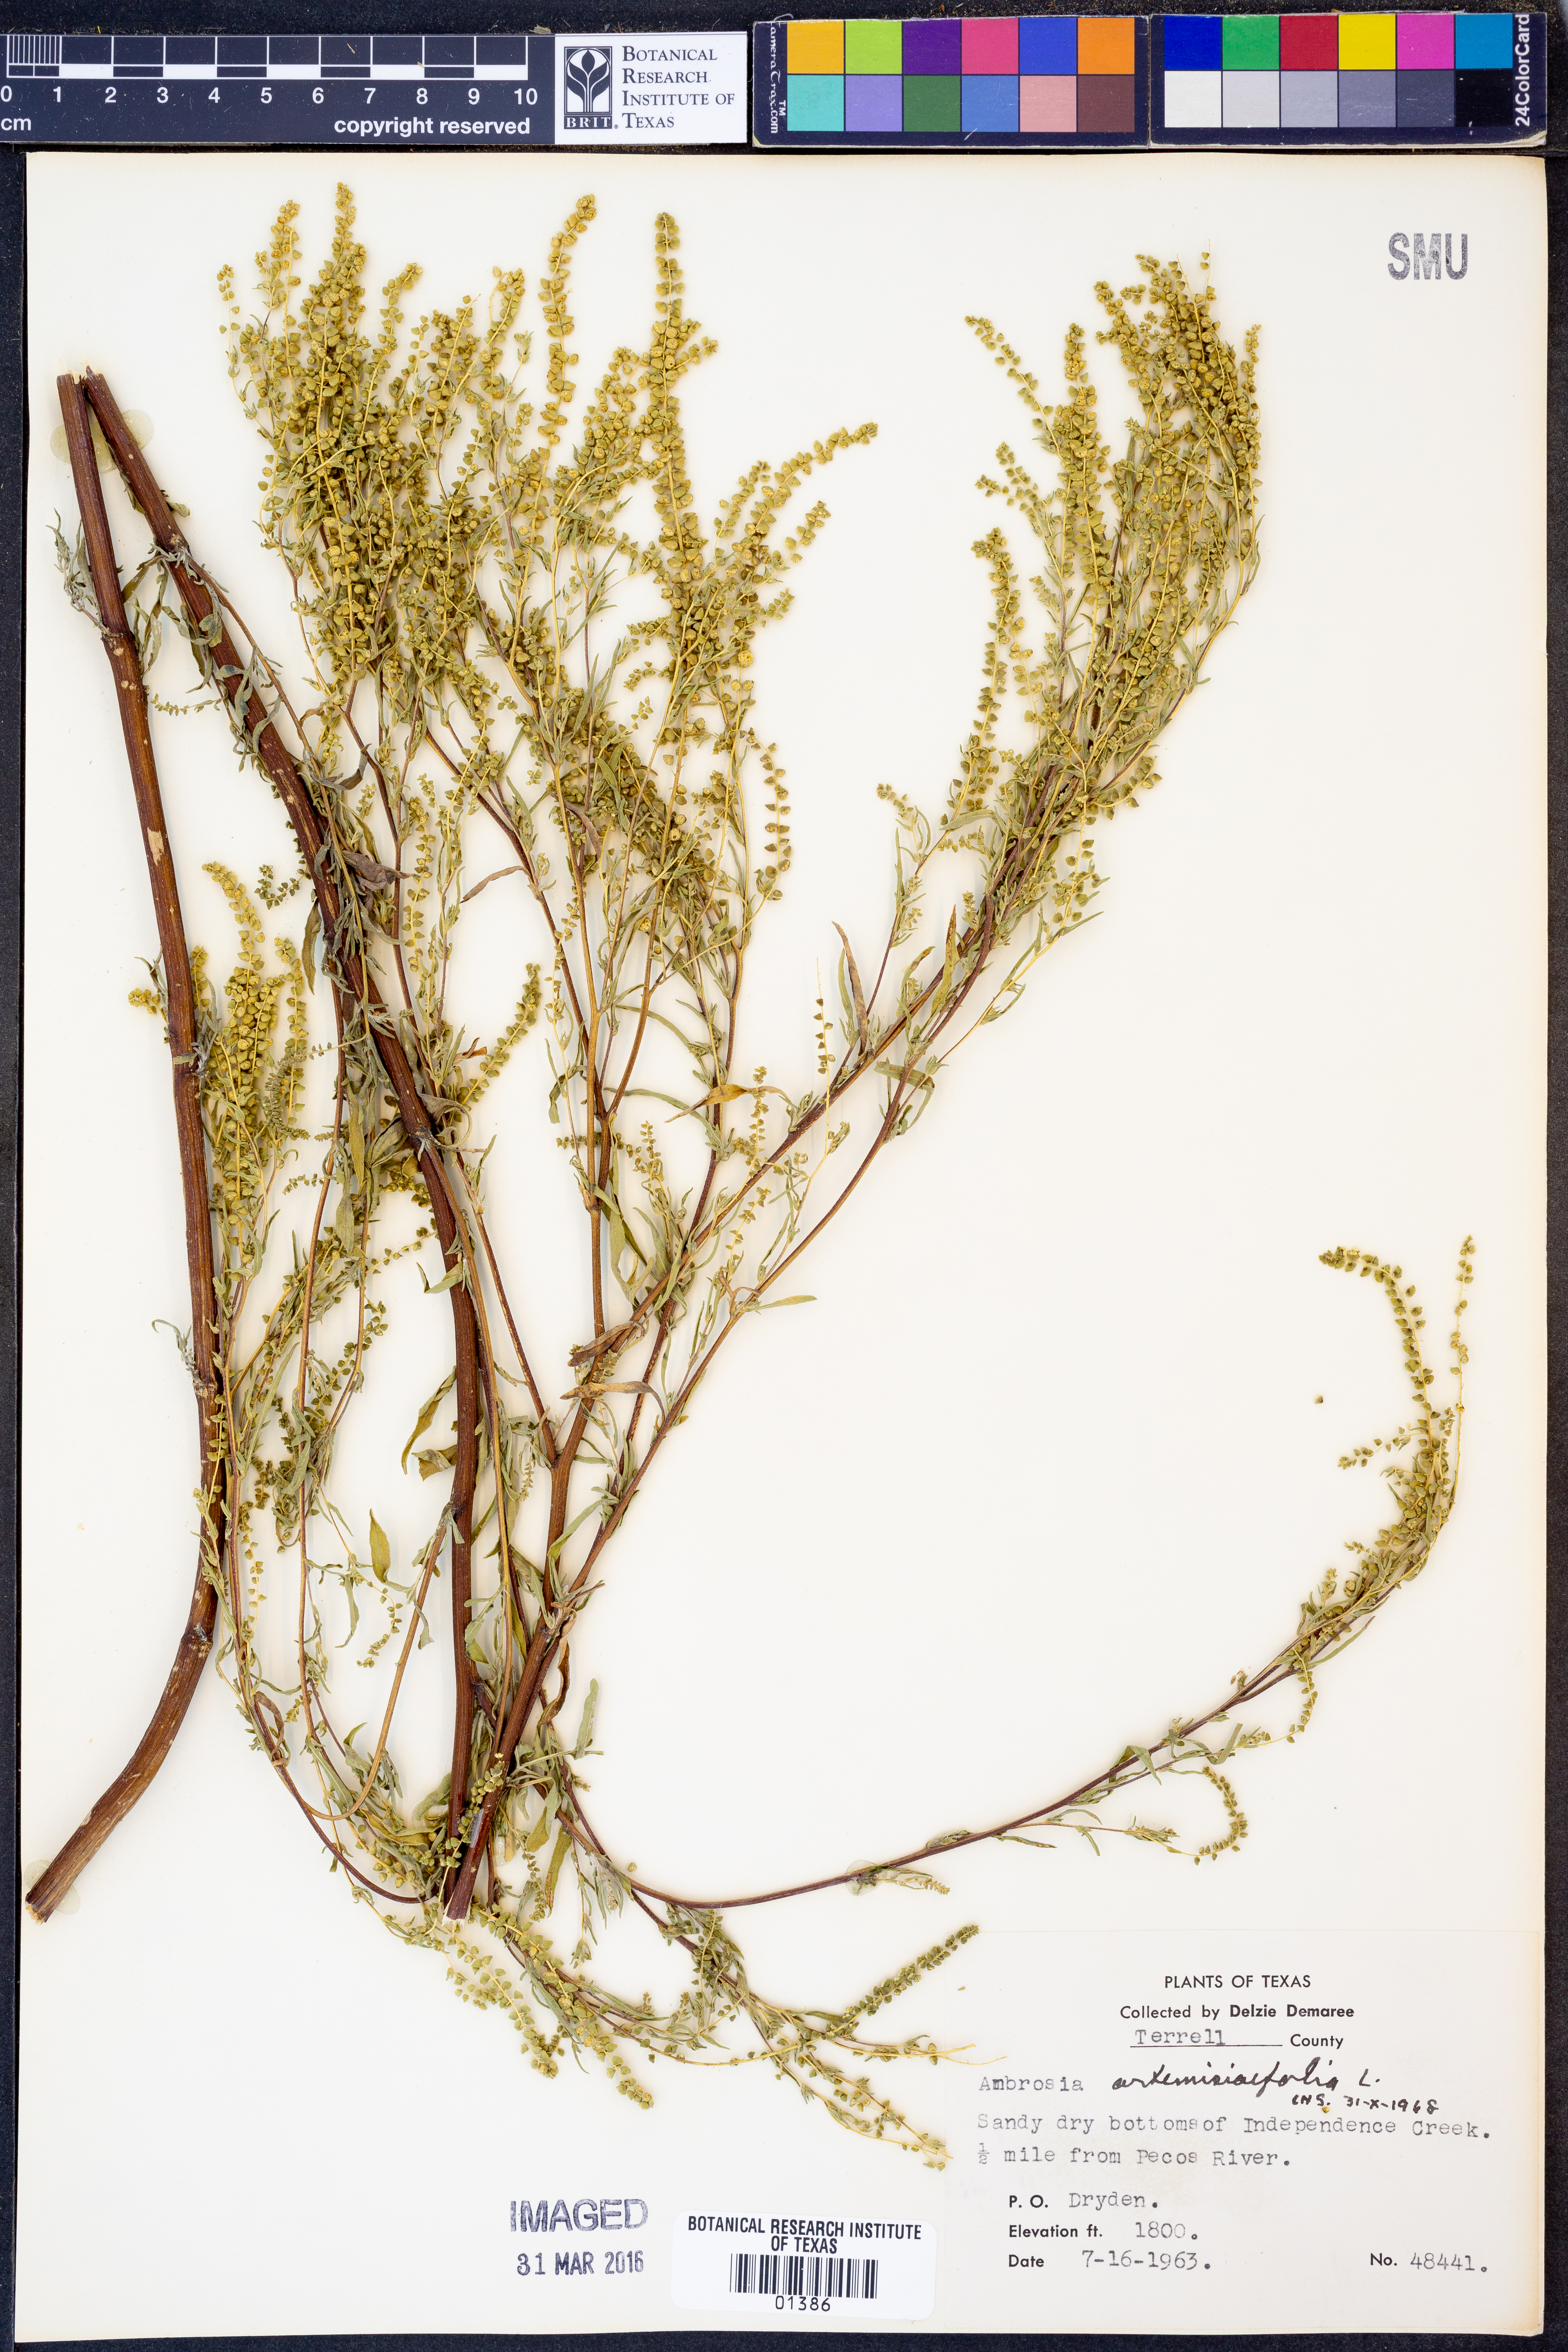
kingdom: Plantae
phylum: Tracheophyta
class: Magnoliopsida
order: Asterales
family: Asteraceae
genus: Ambrosia
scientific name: Ambrosia artemisiifolia
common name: Annual ragweed
